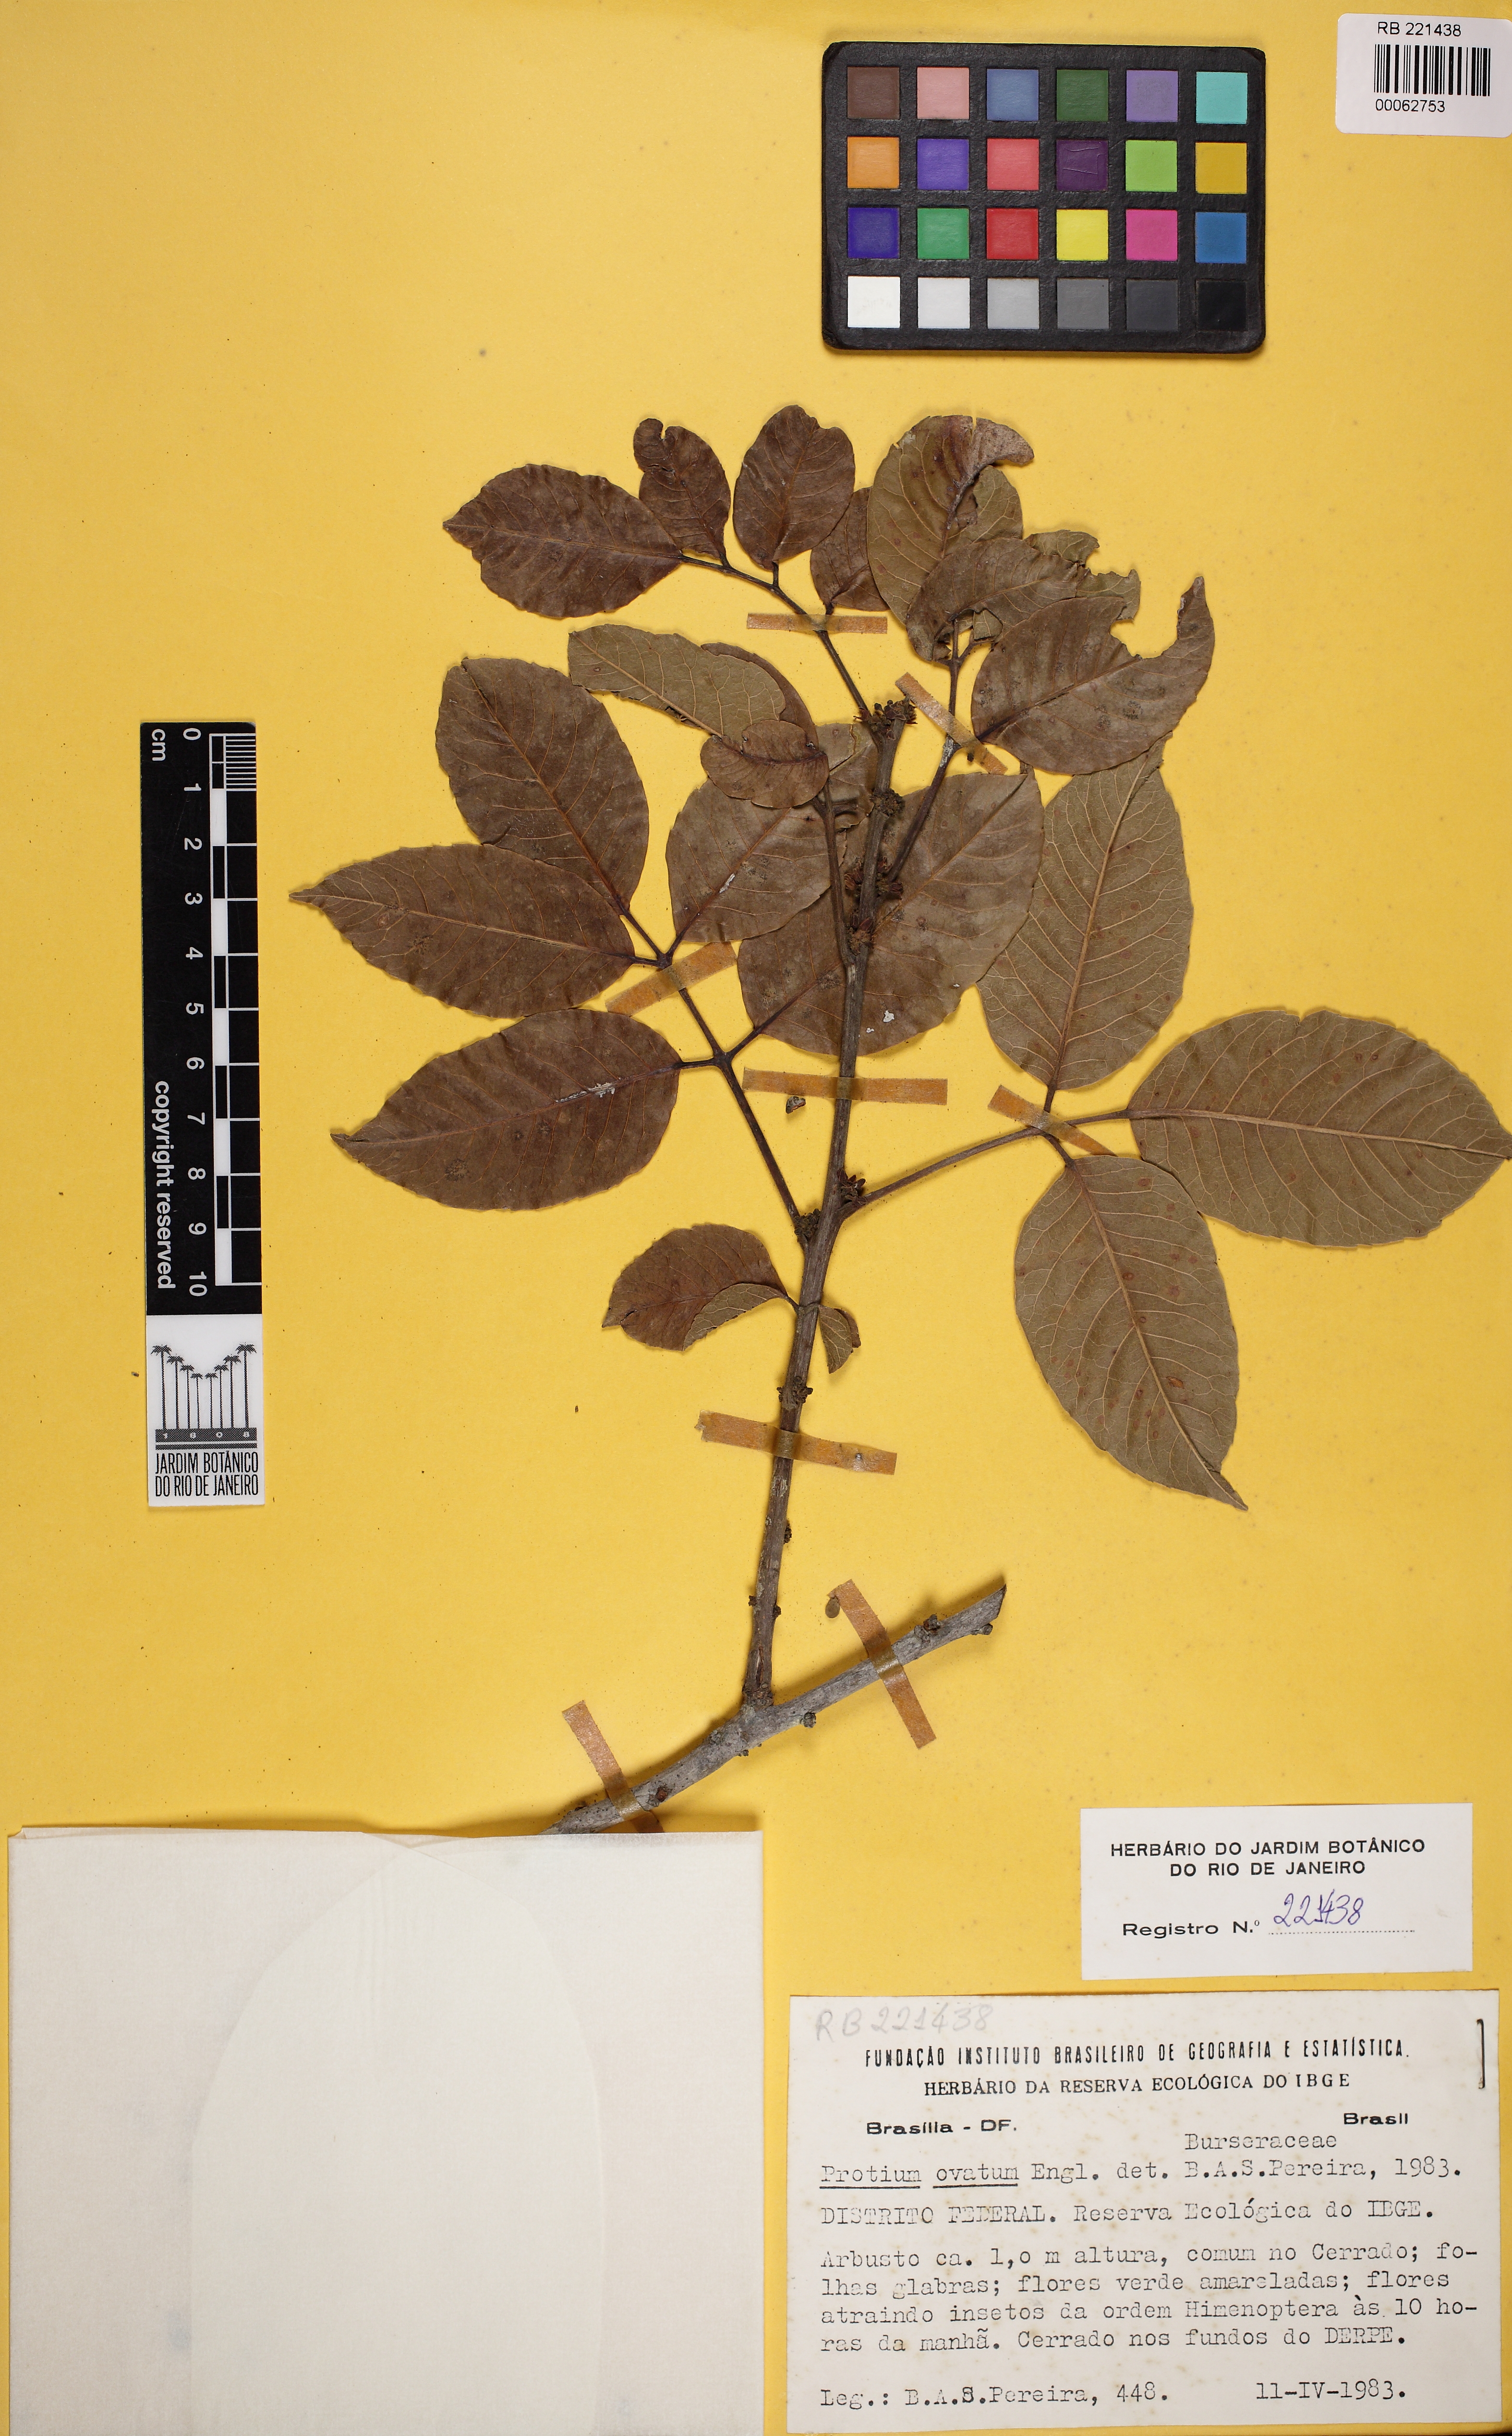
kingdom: Plantae
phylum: Tracheophyta
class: Magnoliopsida
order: Sapindales
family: Burseraceae
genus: Protium
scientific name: Protium ovatum
